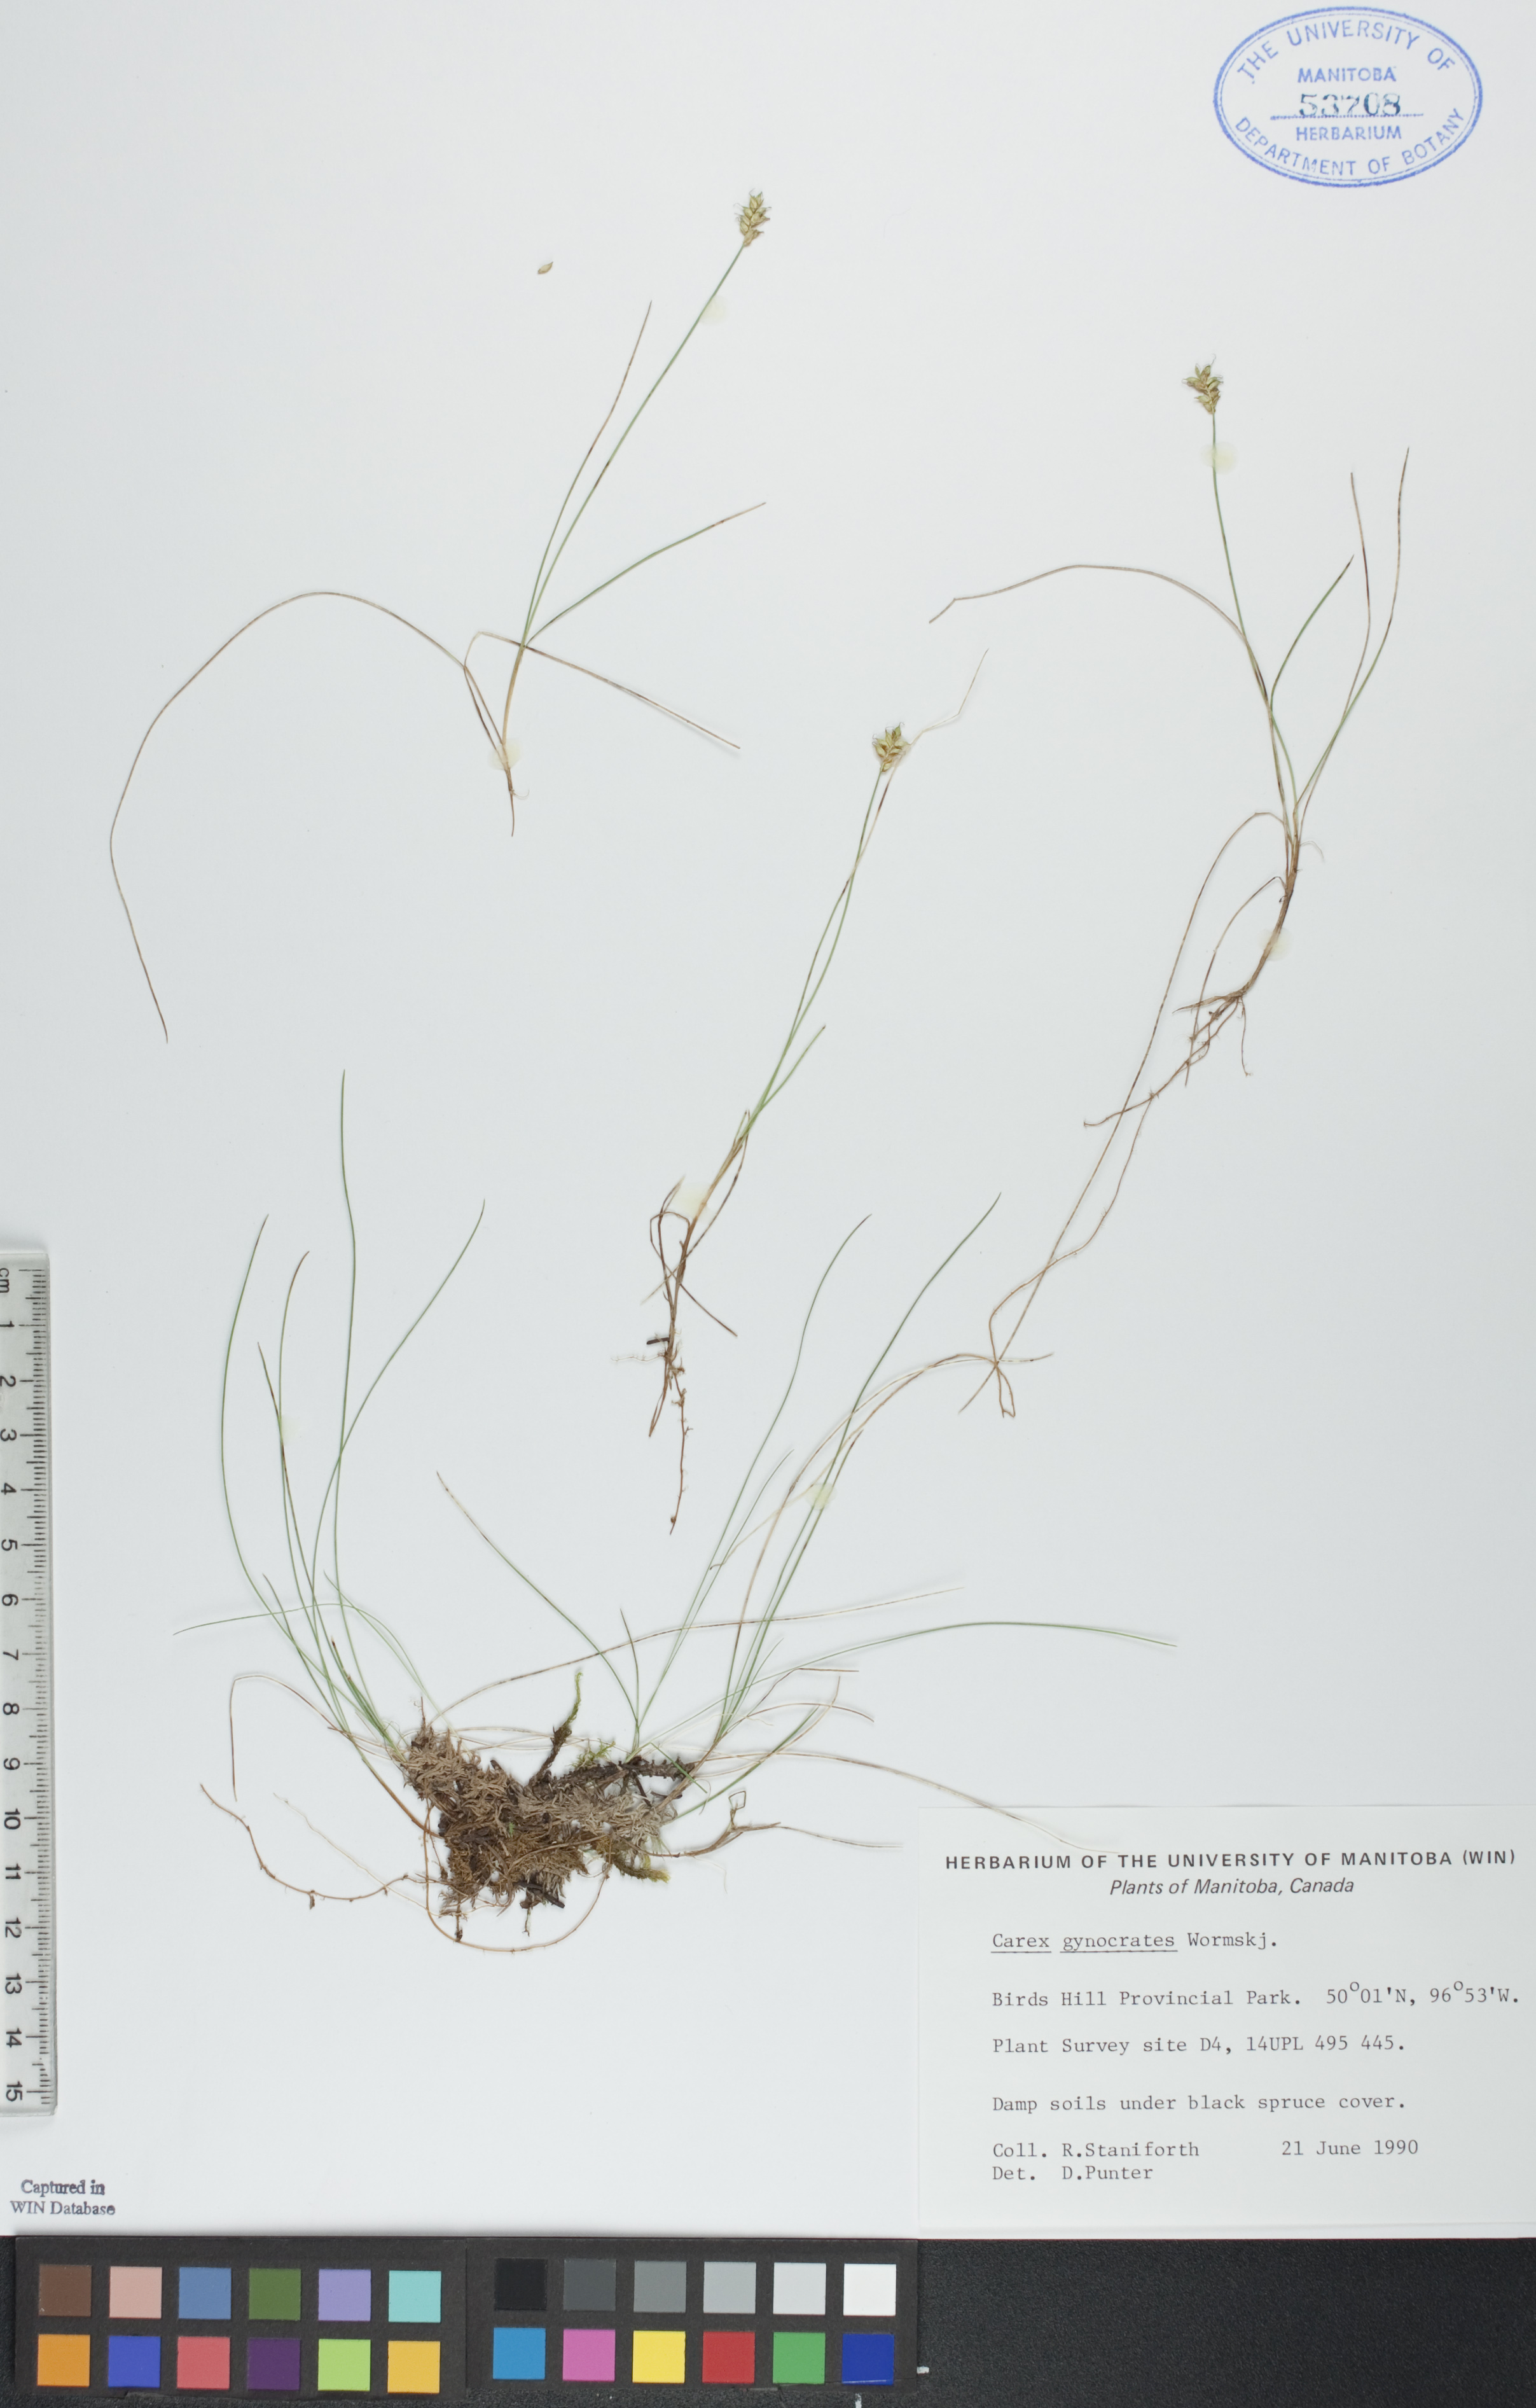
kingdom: Plantae
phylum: Tracheophyta
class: Liliopsida
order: Poales
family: Cyperaceae
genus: Carex
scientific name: Carex nardina
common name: Nard sedge
